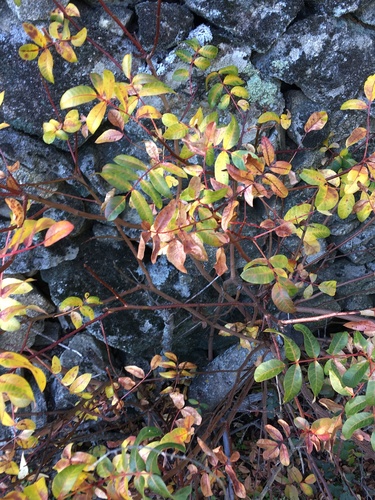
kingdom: Plantae
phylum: Tracheophyta
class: Magnoliopsida
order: Sapindales
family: Anacardiaceae
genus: Pistacia
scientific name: Pistacia terebinthus
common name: Terebinth
